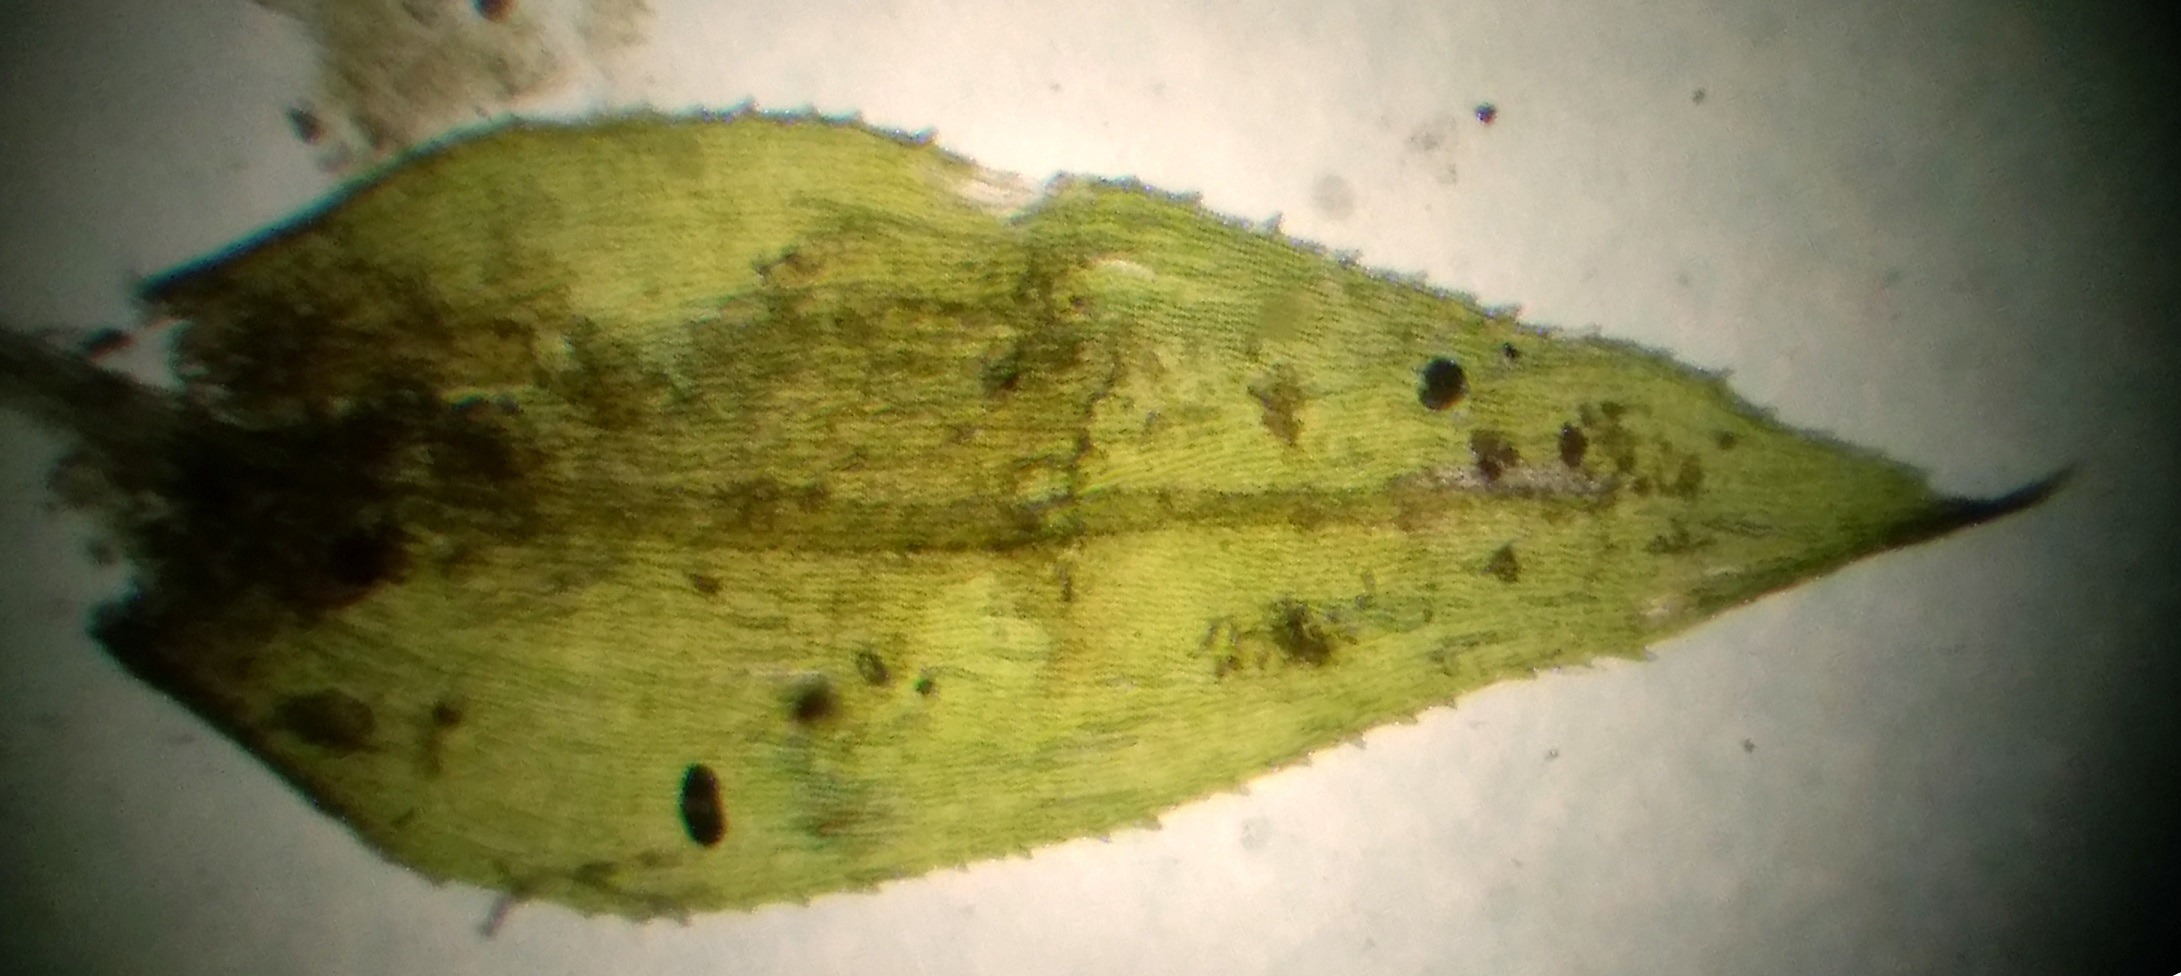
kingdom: Plantae
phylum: Bryophyta
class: Bryopsida
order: Hypnales
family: Brachytheciaceae
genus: Oxyrrhynchium
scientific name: Oxyrrhynchium speciosum
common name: Stor vortetand
